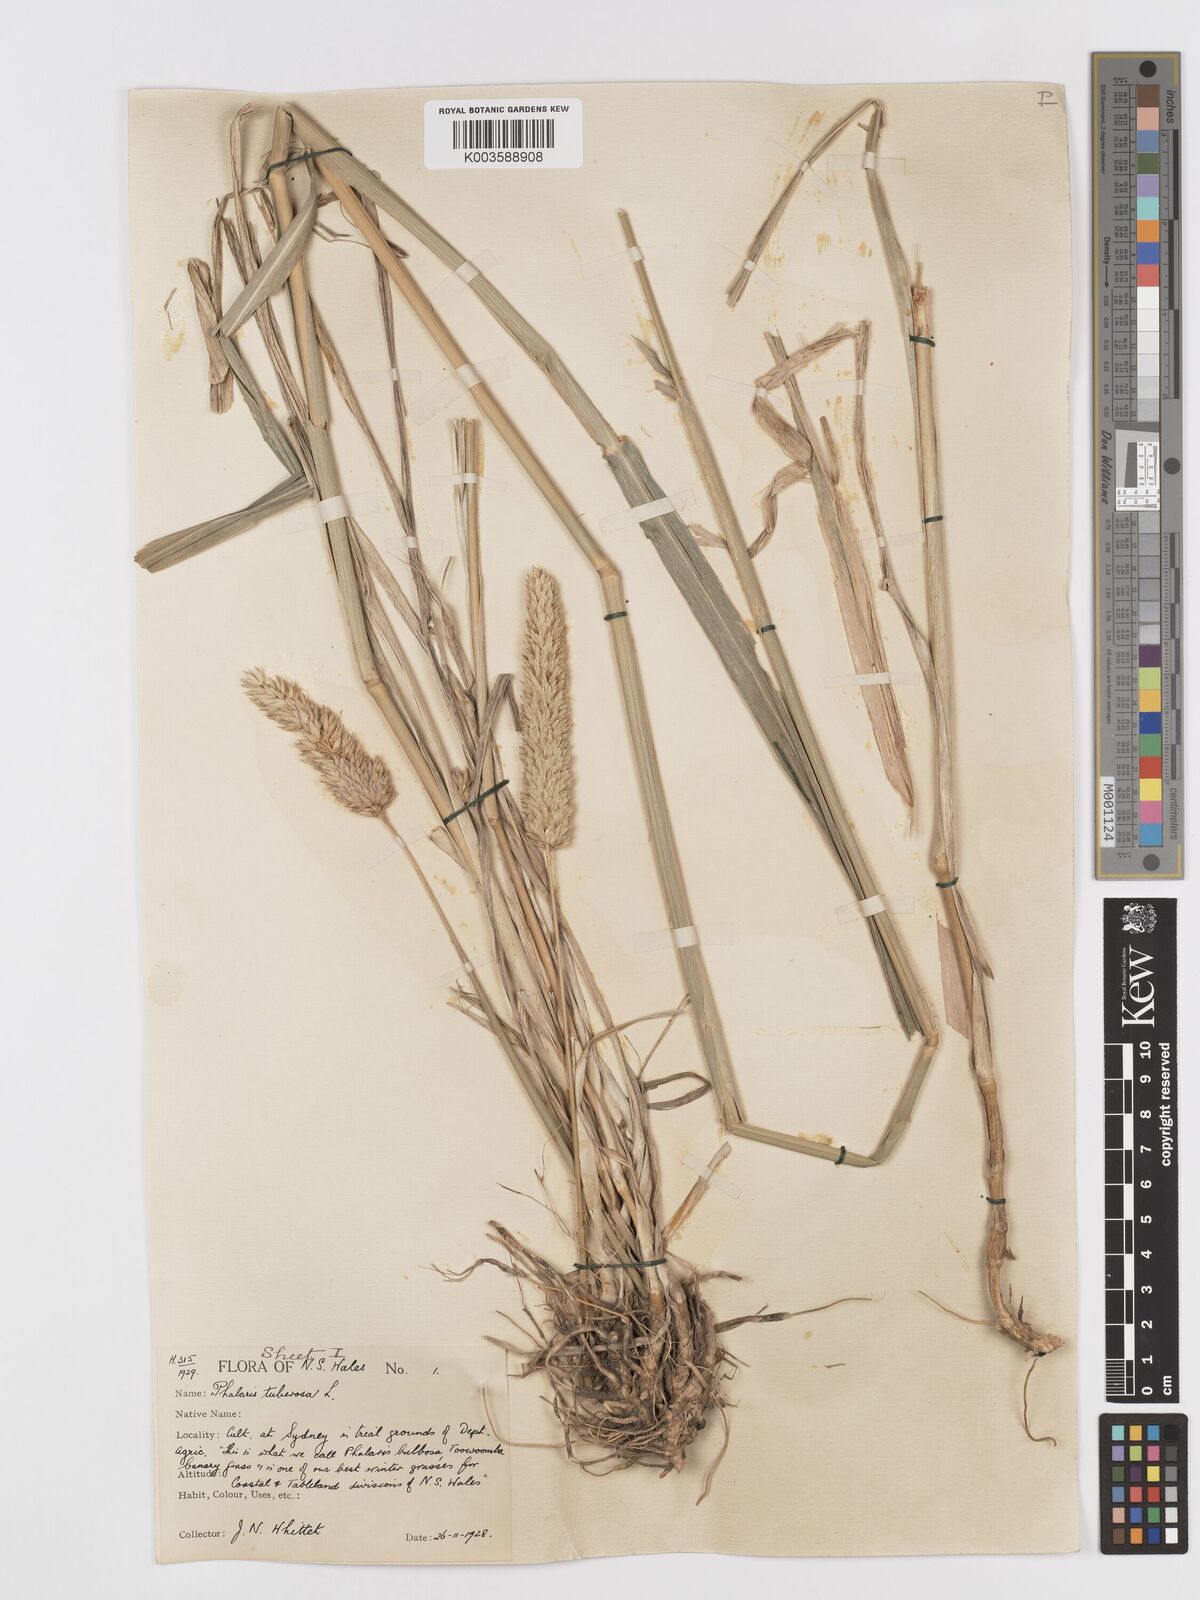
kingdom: Plantae
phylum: Tracheophyta
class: Liliopsida
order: Poales
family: Poaceae
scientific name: Poaceae
